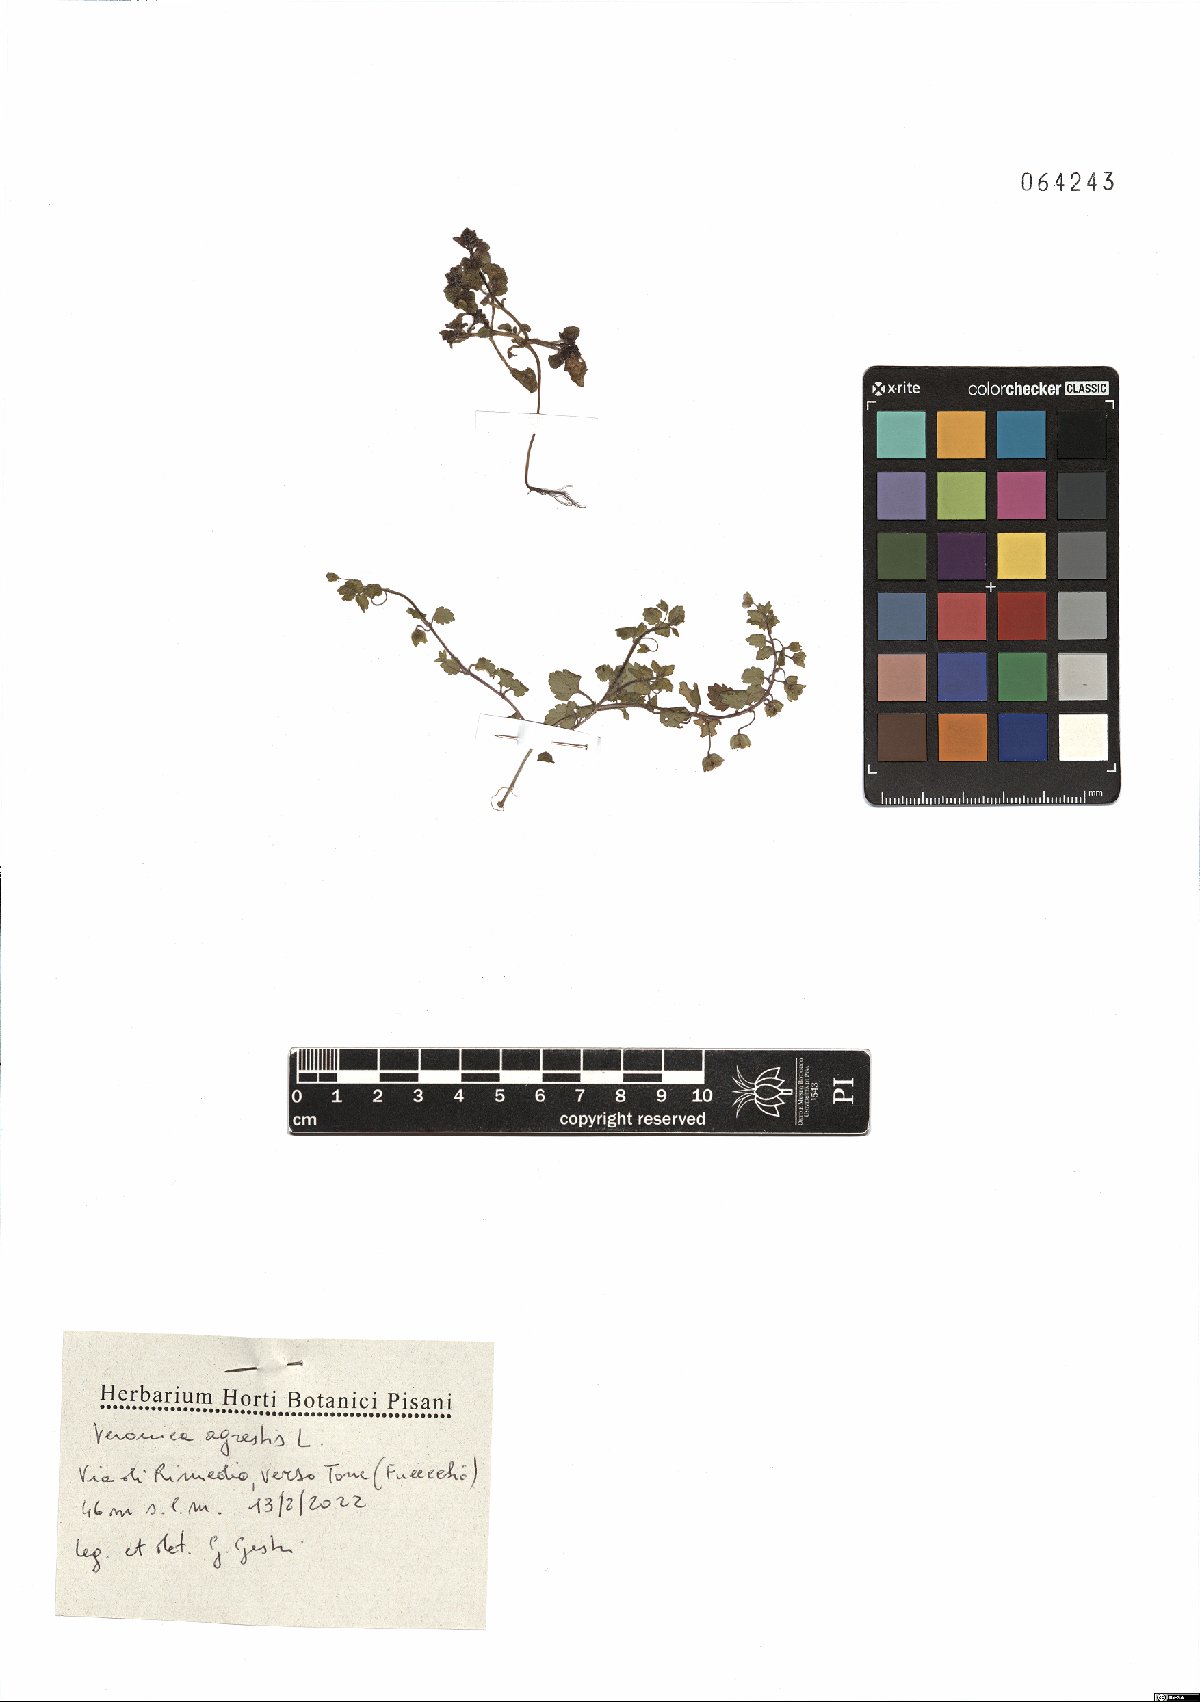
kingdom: Plantae
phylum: Tracheophyta
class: Magnoliopsida
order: Lamiales
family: Plantaginaceae
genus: Veronica
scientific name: Veronica agrestis
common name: Green field-speedwell
